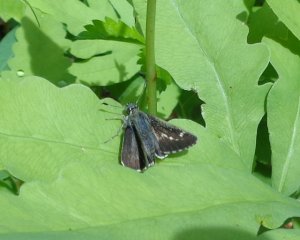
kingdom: Animalia
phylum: Arthropoda
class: Insecta
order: Lepidoptera
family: Hesperiidae
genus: Mastor
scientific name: Mastor hegon
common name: Pepper and Salt Skipper
